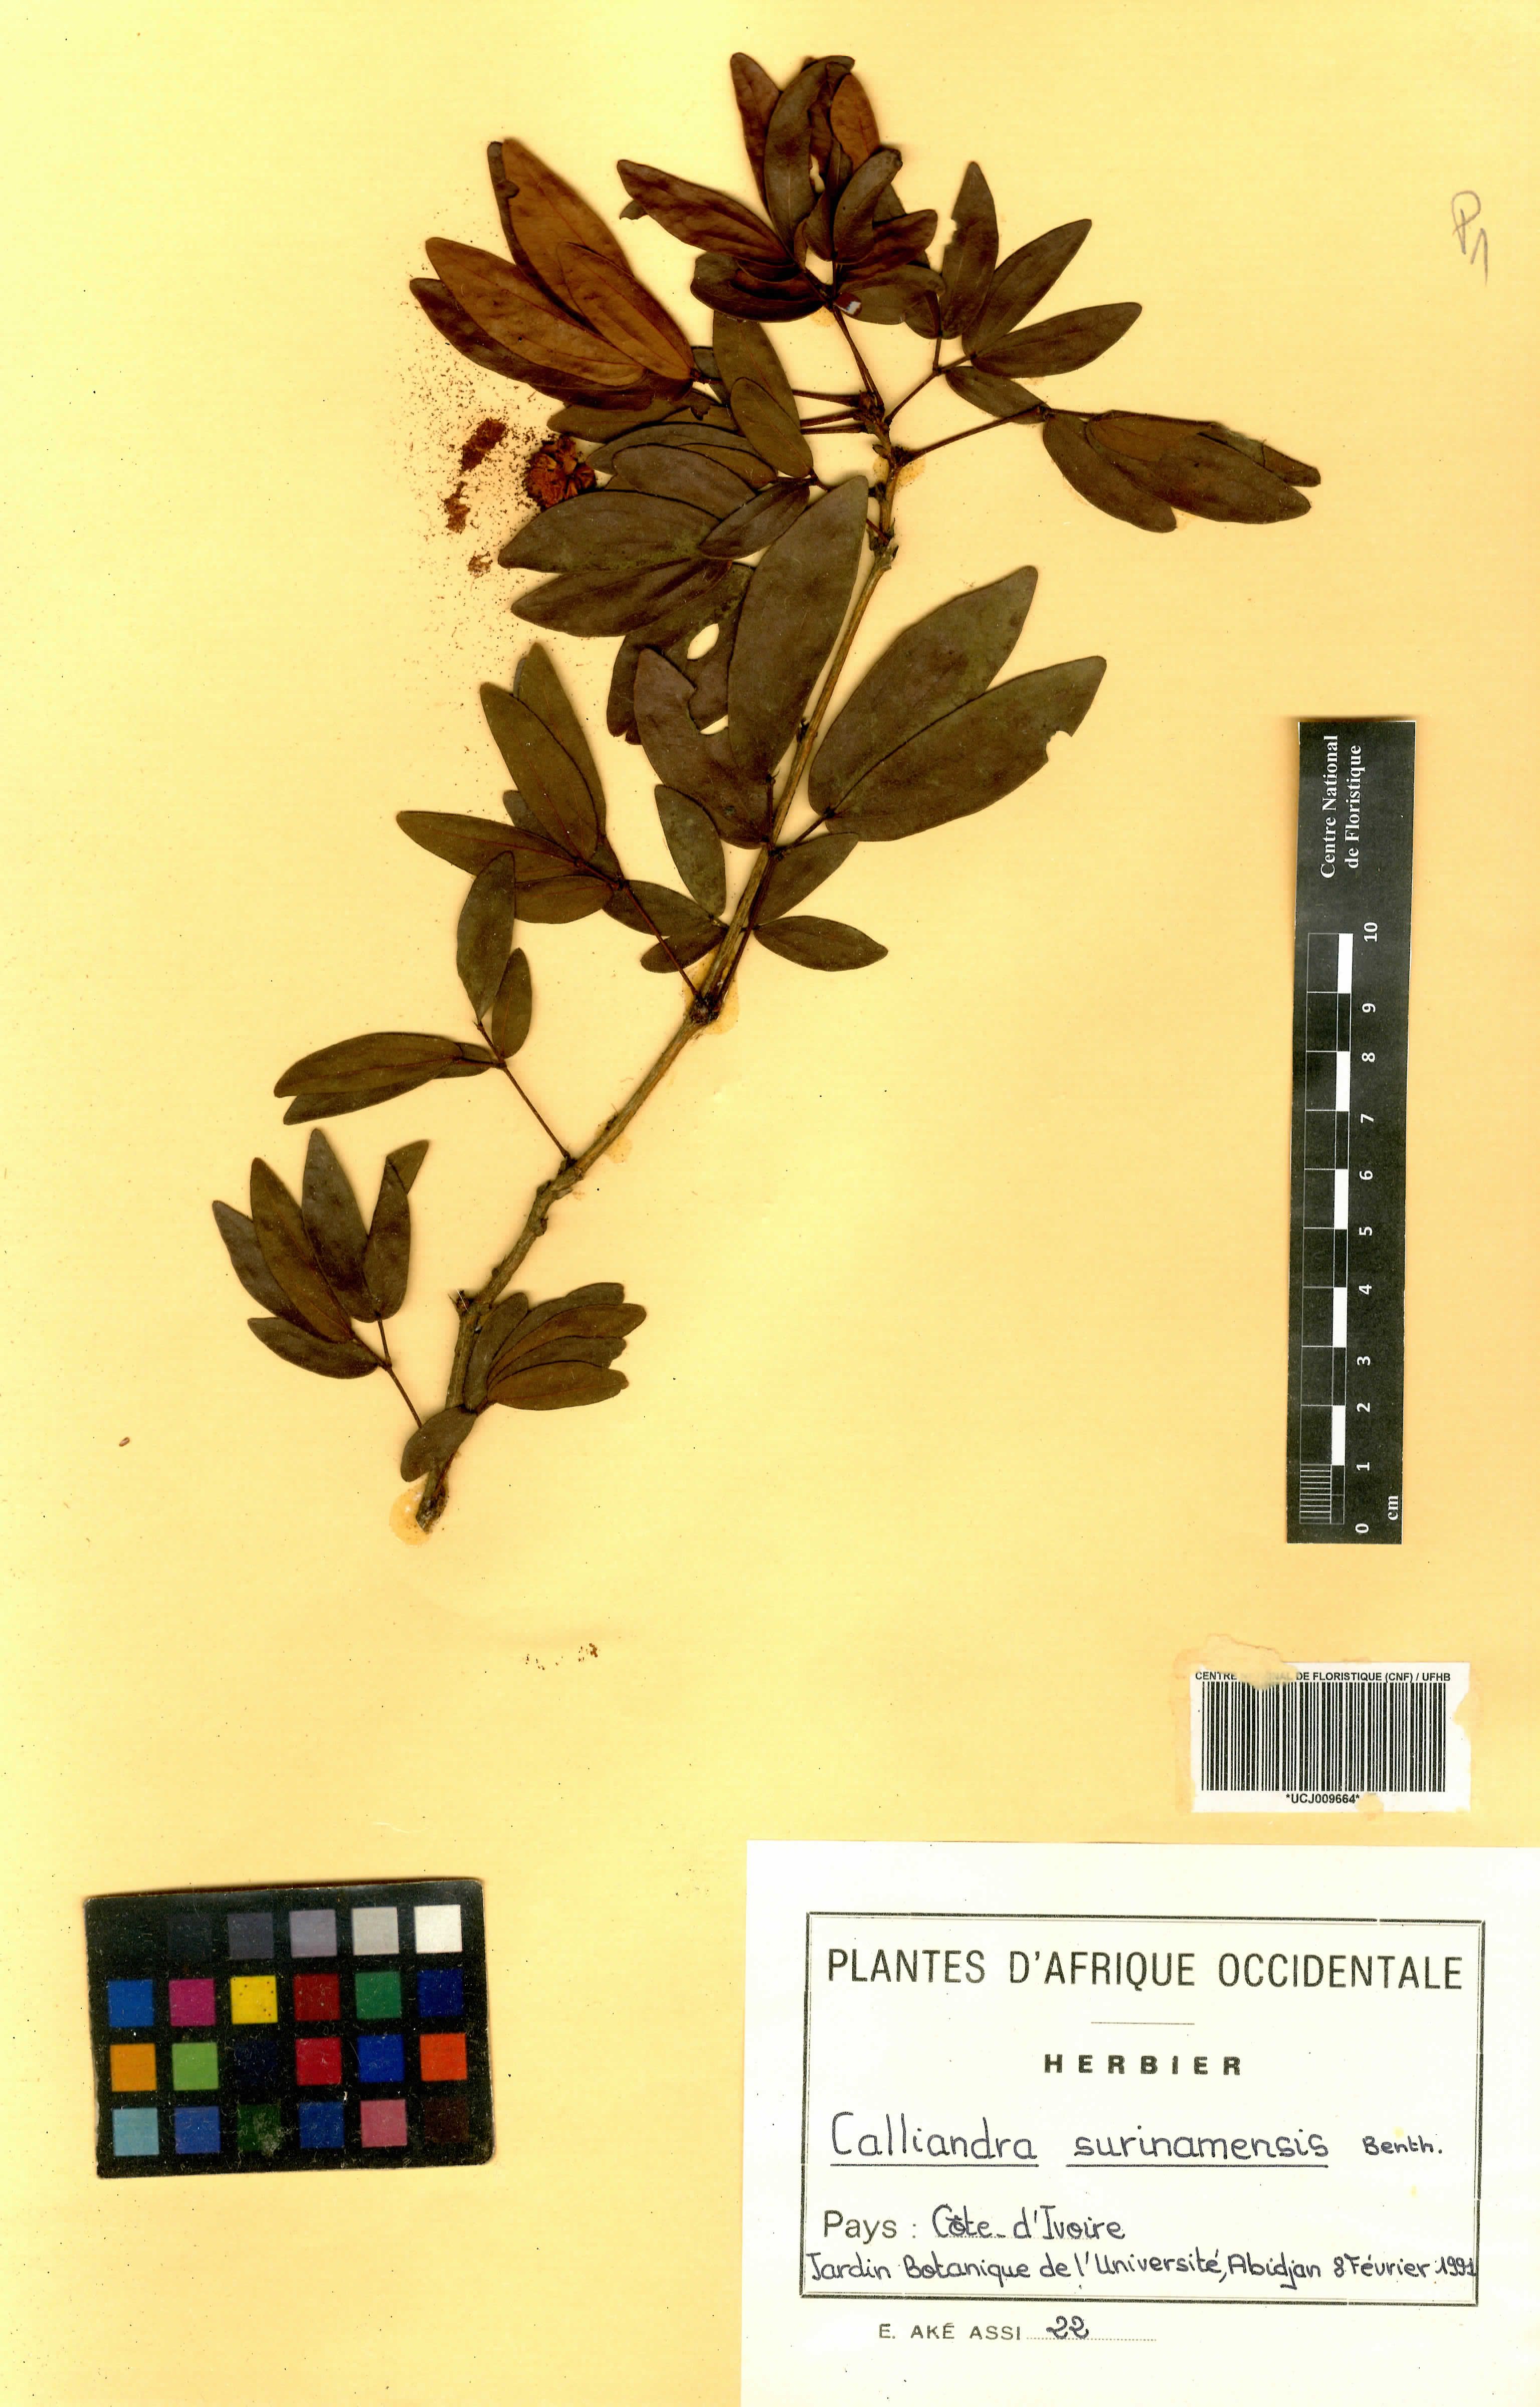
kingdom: Plantae
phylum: Tracheophyta
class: Magnoliopsida
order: Fabales
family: Fabaceae
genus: Calliandra
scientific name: Calliandra surinamensis
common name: Pink powder puff
